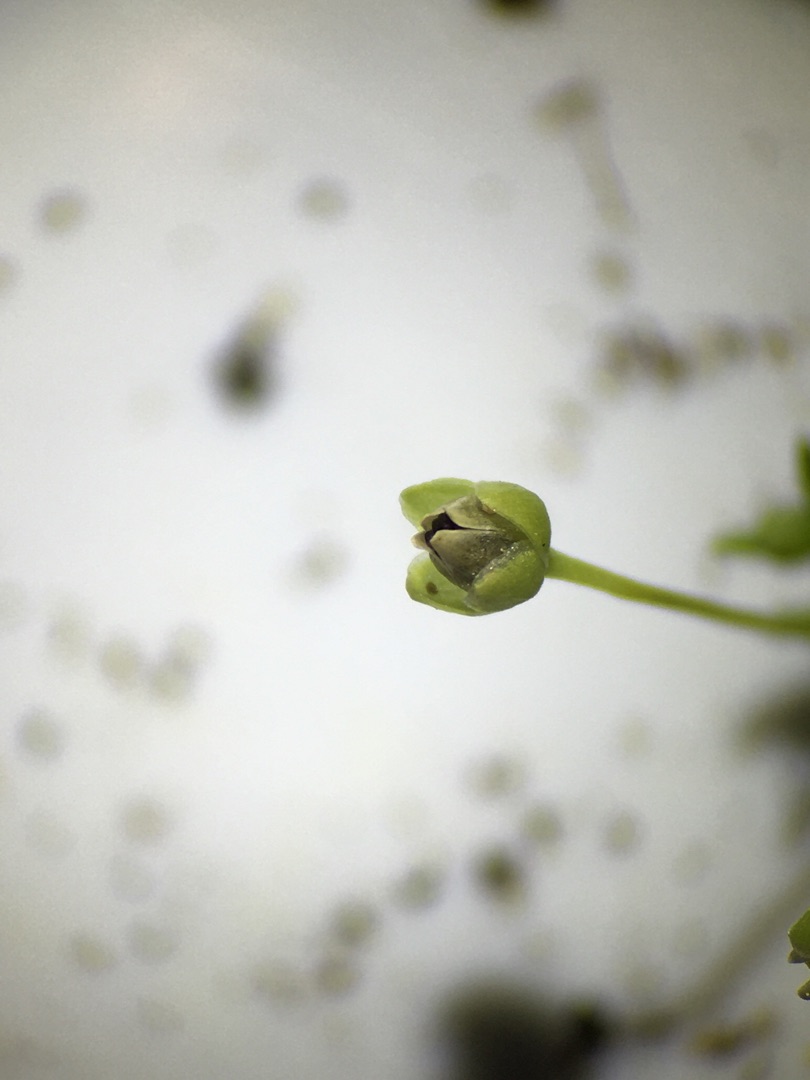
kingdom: Plantae
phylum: Tracheophyta
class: Magnoliopsida
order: Caryophyllales
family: Caryophyllaceae
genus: Sagina
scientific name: Sagina procumbens
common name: Almindelig firling
